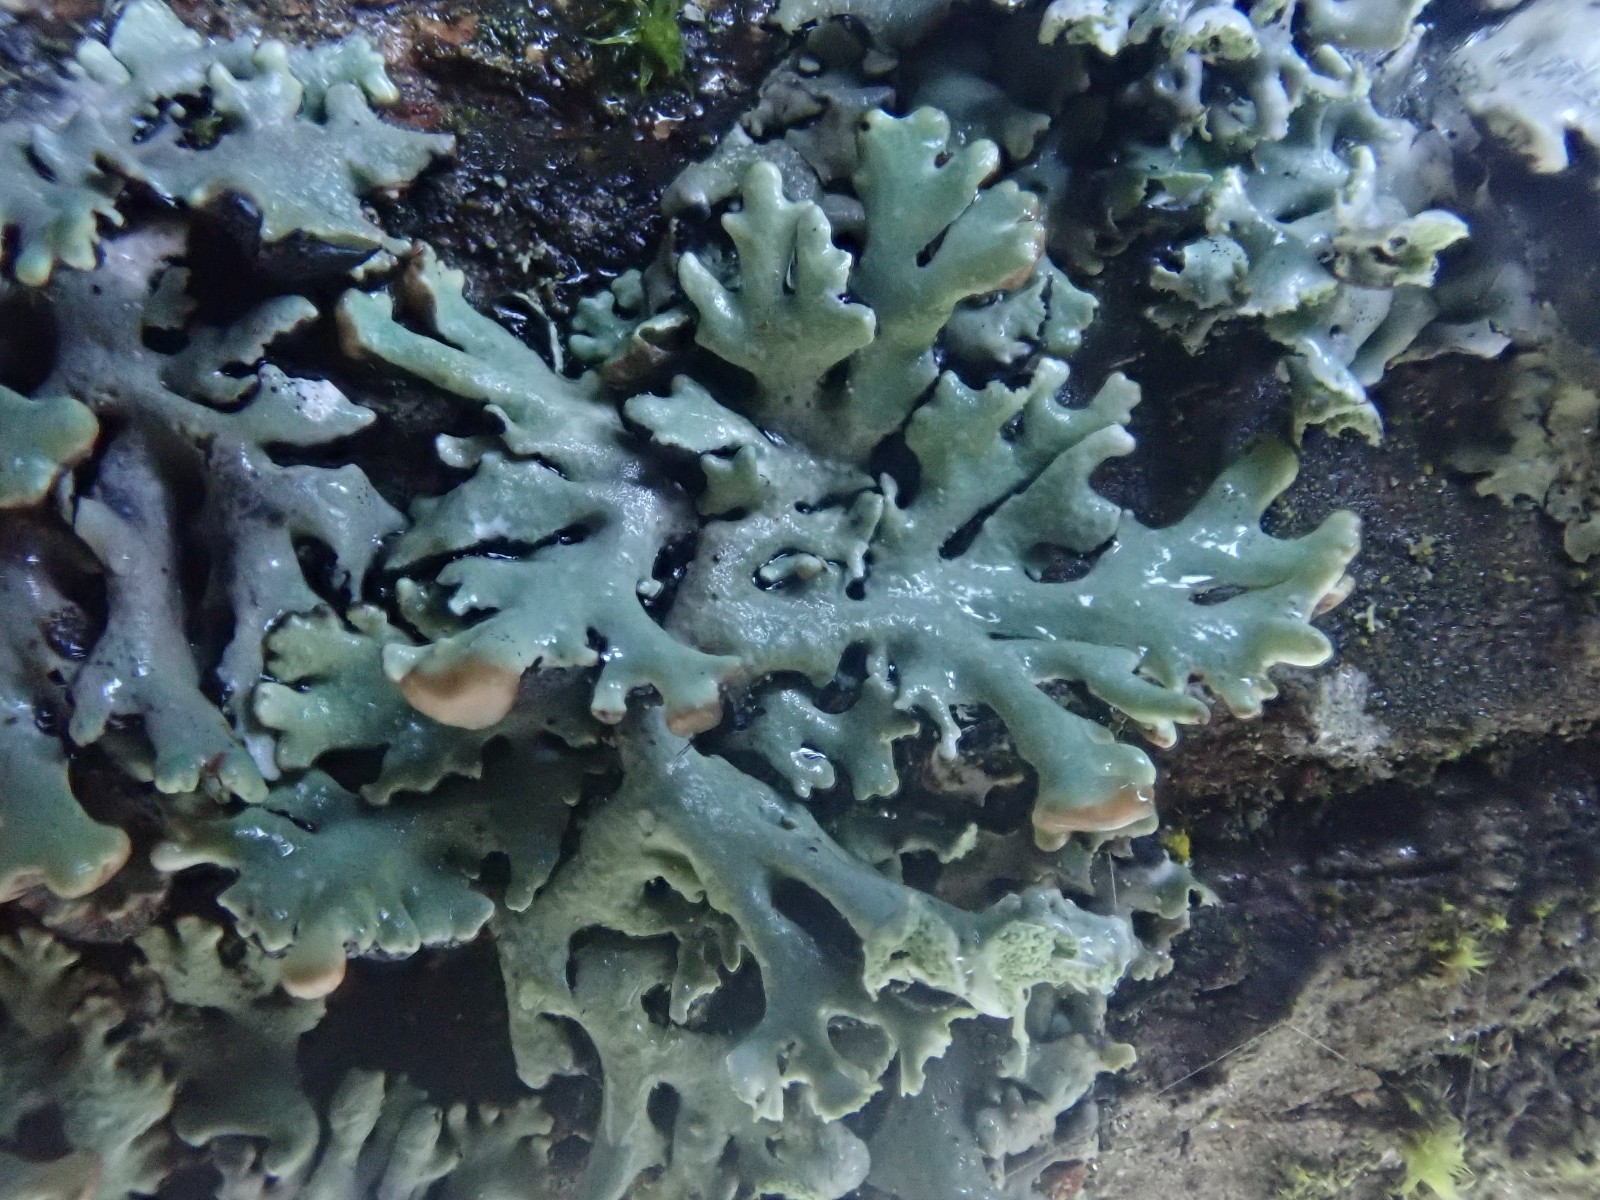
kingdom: Fungi
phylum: Ascomycota
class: Lecanoromycetes
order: Lecanorales
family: Parmeliaceae
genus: Hypogymnia
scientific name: Hypogymnia physodes
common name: almindelig kvistlav
